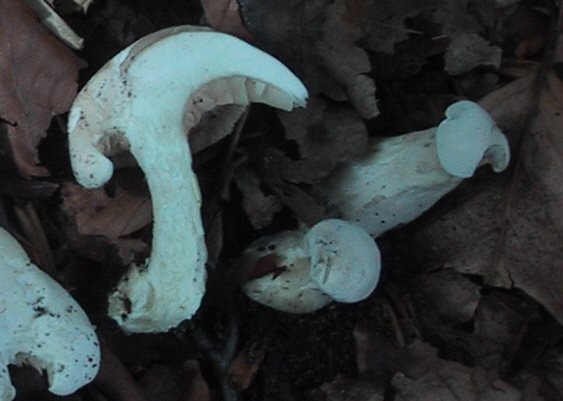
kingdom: Fungi
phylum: Basidiomycota
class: Agaricomycetes
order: Agaricales
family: Entolomataceae
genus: Clitopilus
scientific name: Clitopilus prunulus
